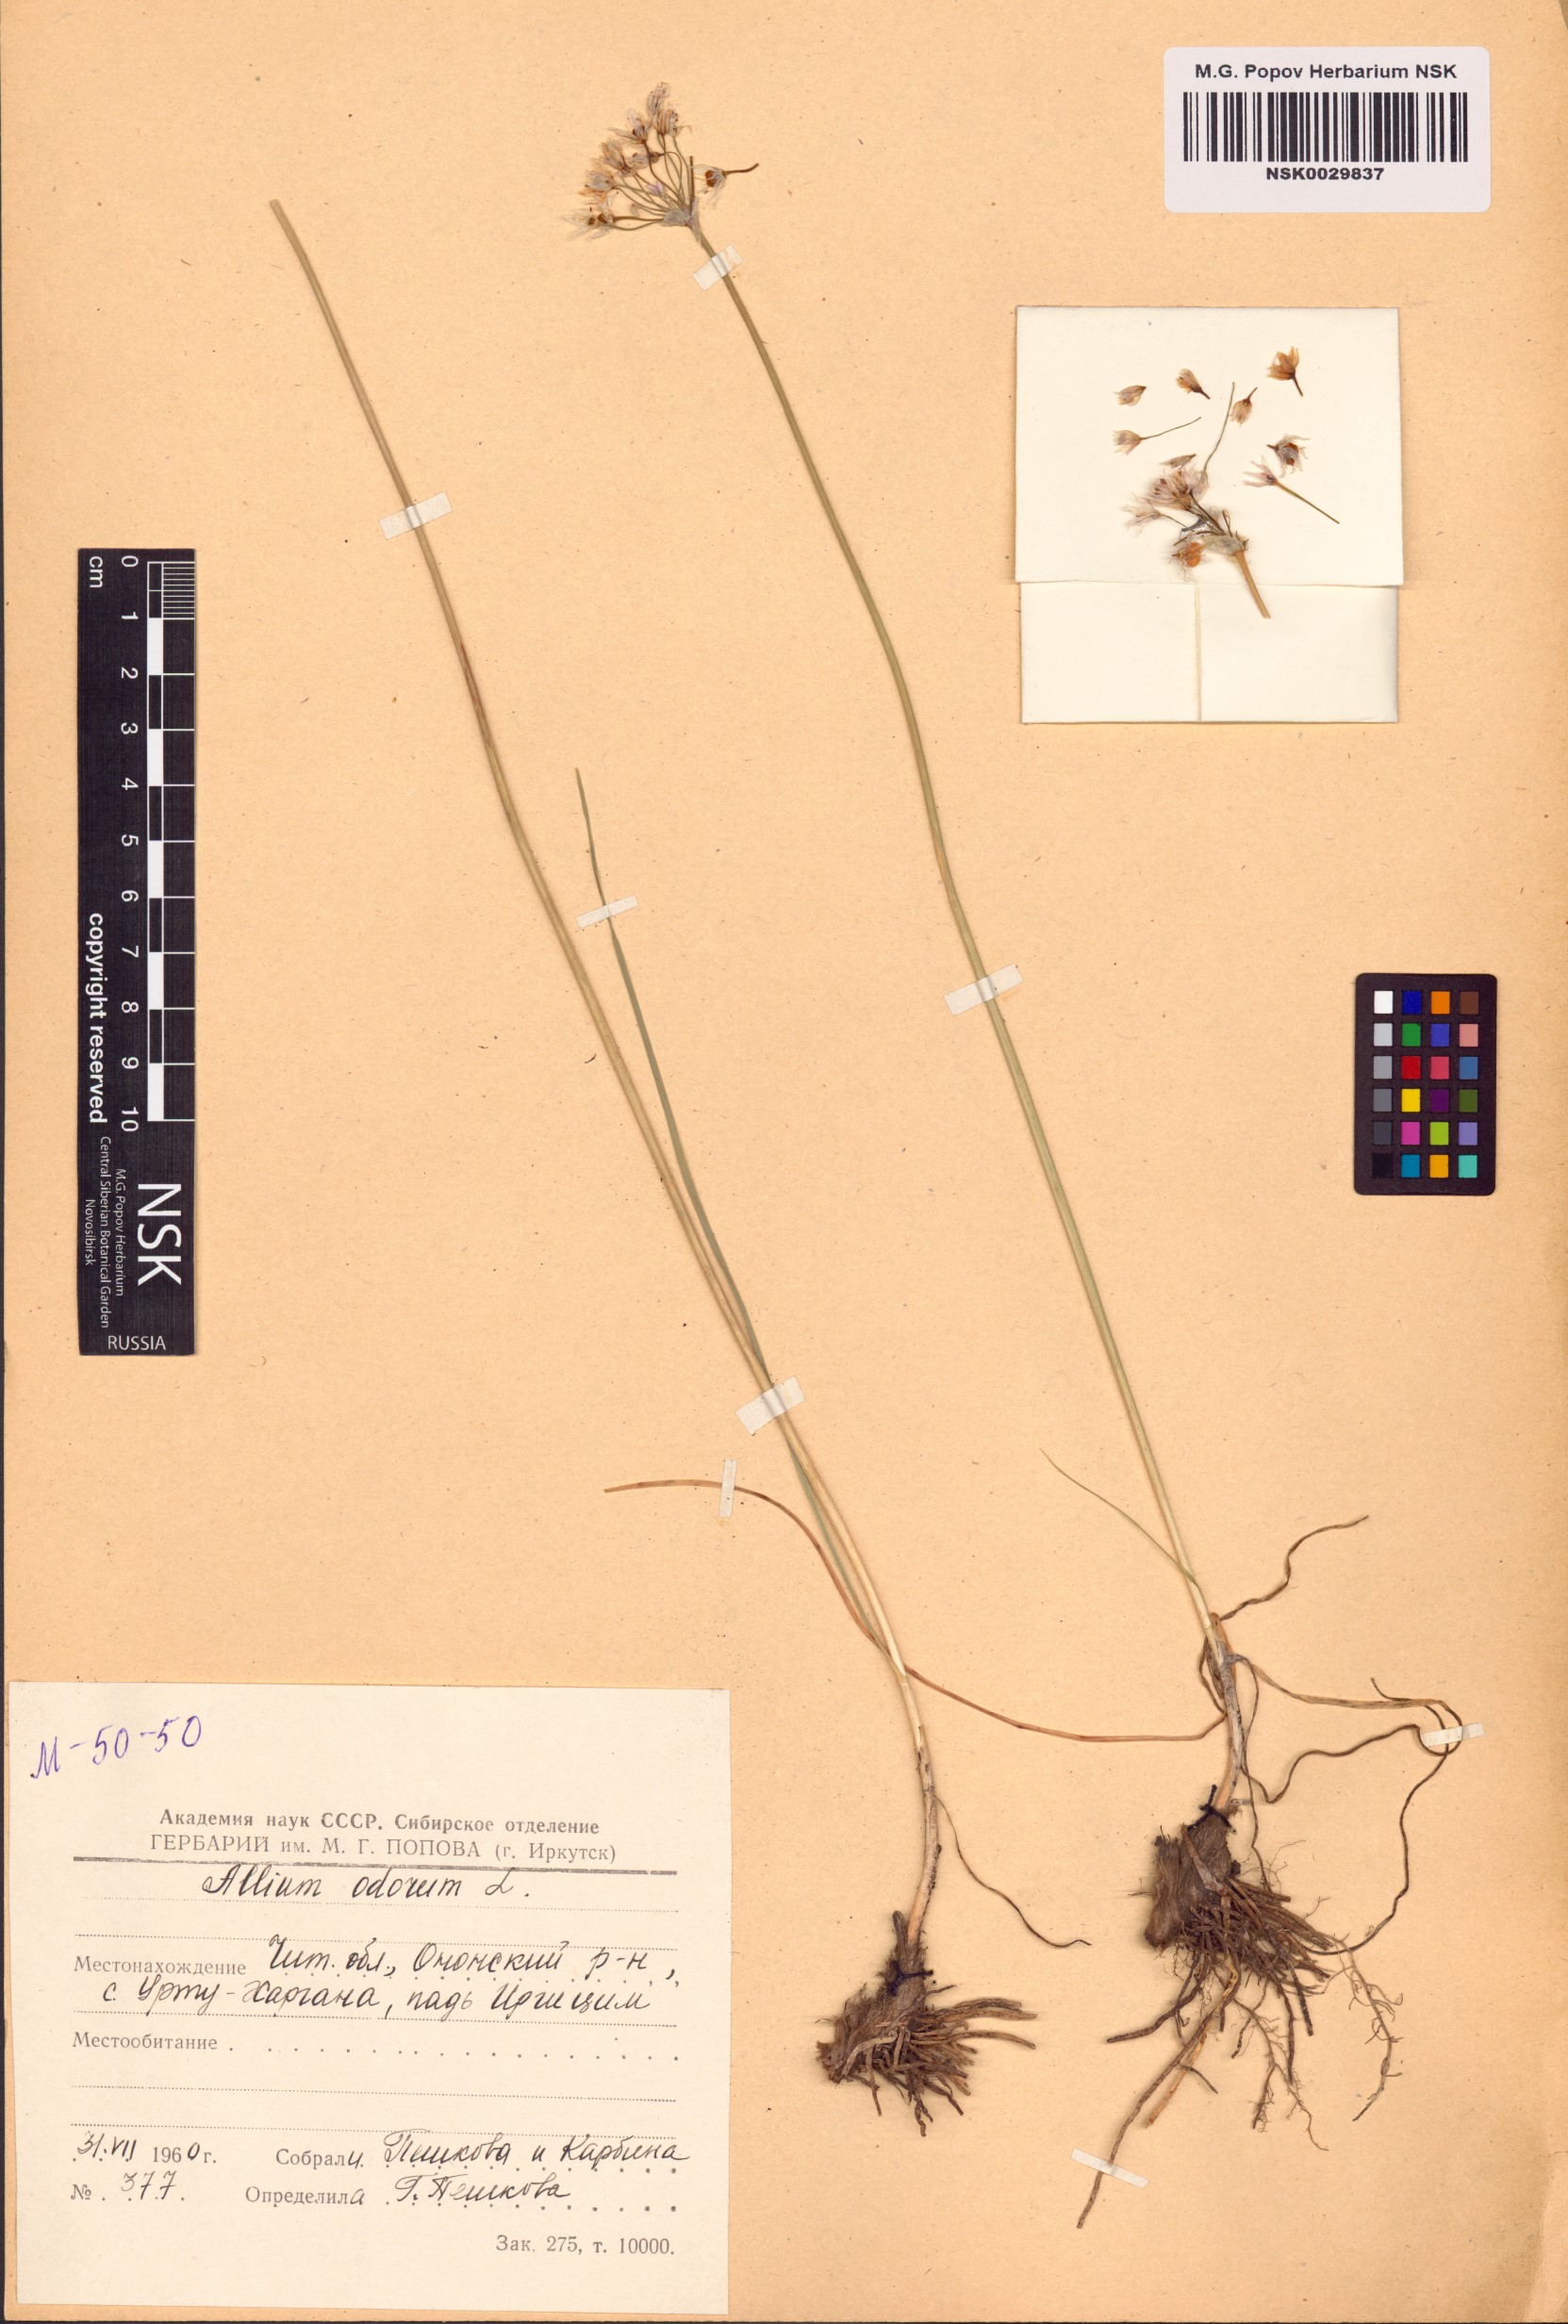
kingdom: Plantae
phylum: Tracheophyta
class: Liliopsida
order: Asparagales
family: Amaryllidaceae
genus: Allium
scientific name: Allium ramosum
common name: Fragrant garlic
